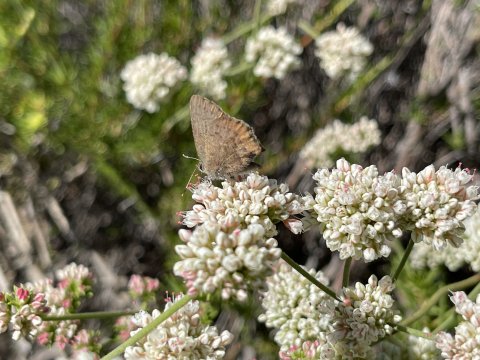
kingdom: Animalia
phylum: Arthropoda
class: Insecta
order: Lepidoptera
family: Lycaenidae
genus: Incisalia
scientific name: Incisalia irioides
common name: Brown Elfin
